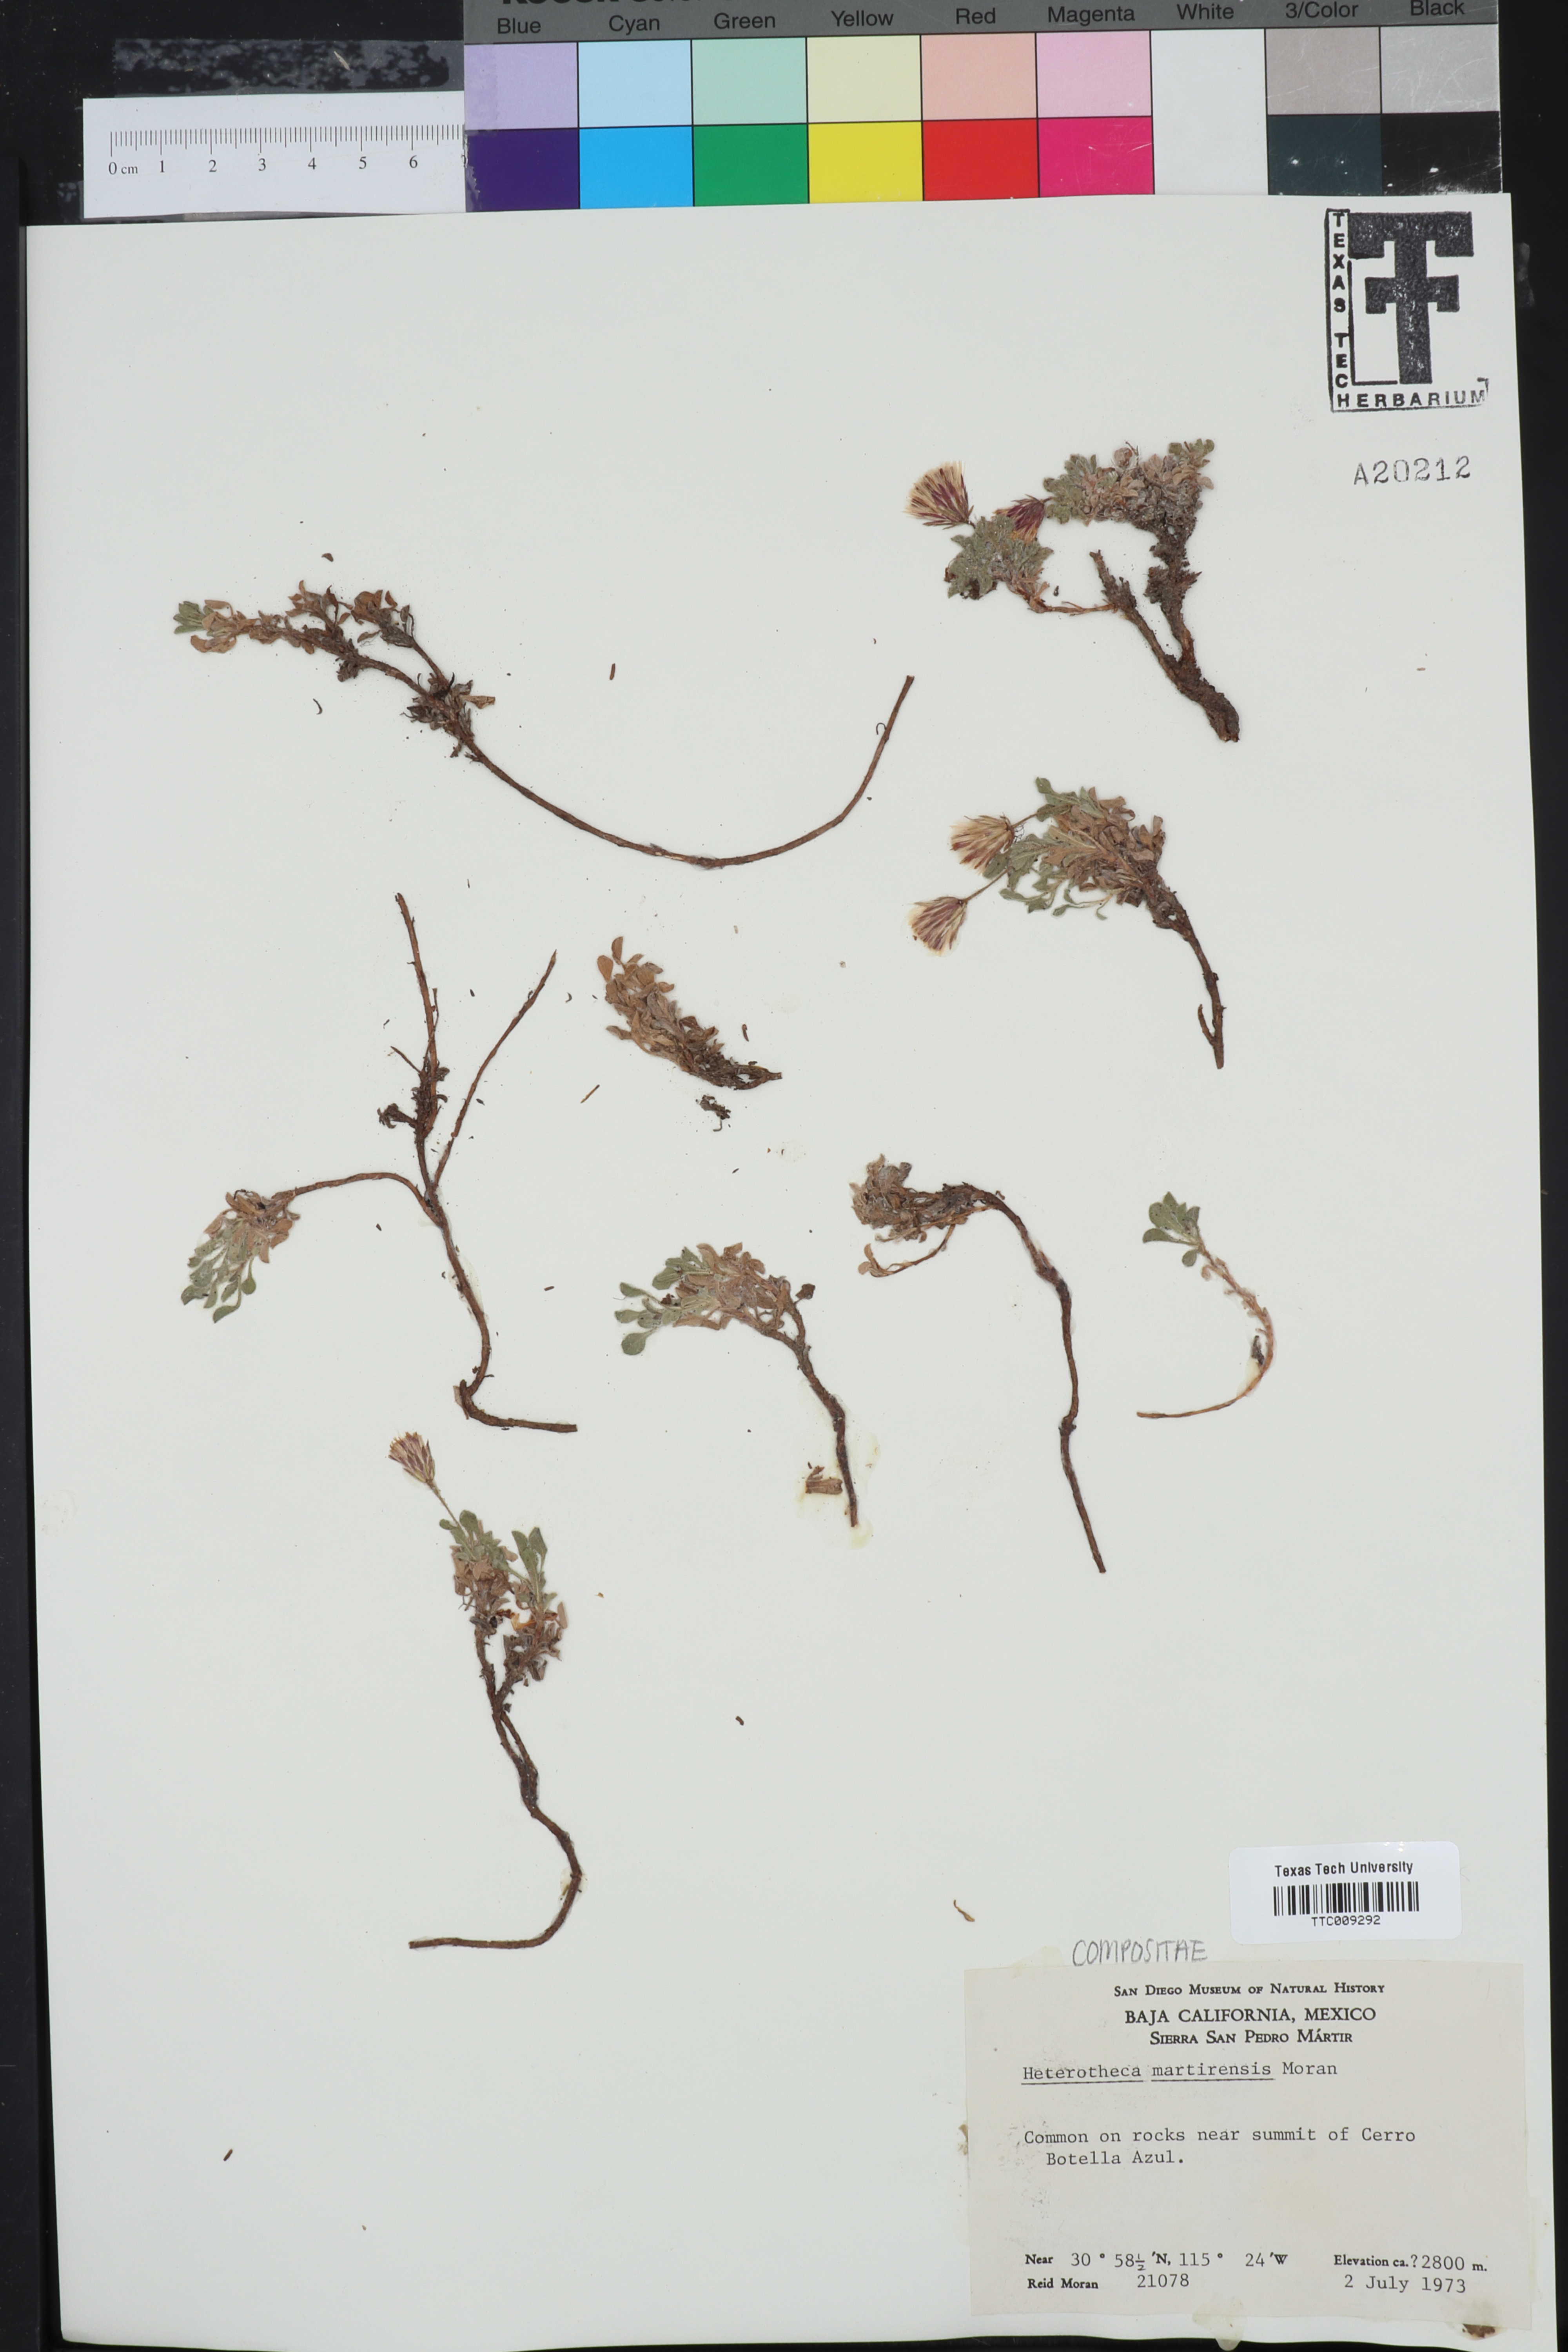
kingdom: Plantae
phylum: Tracheophyta
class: Magnoliopsida
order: Asterales
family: Asteraceae
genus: Heterotheca
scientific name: Heterotheca brandegeei
